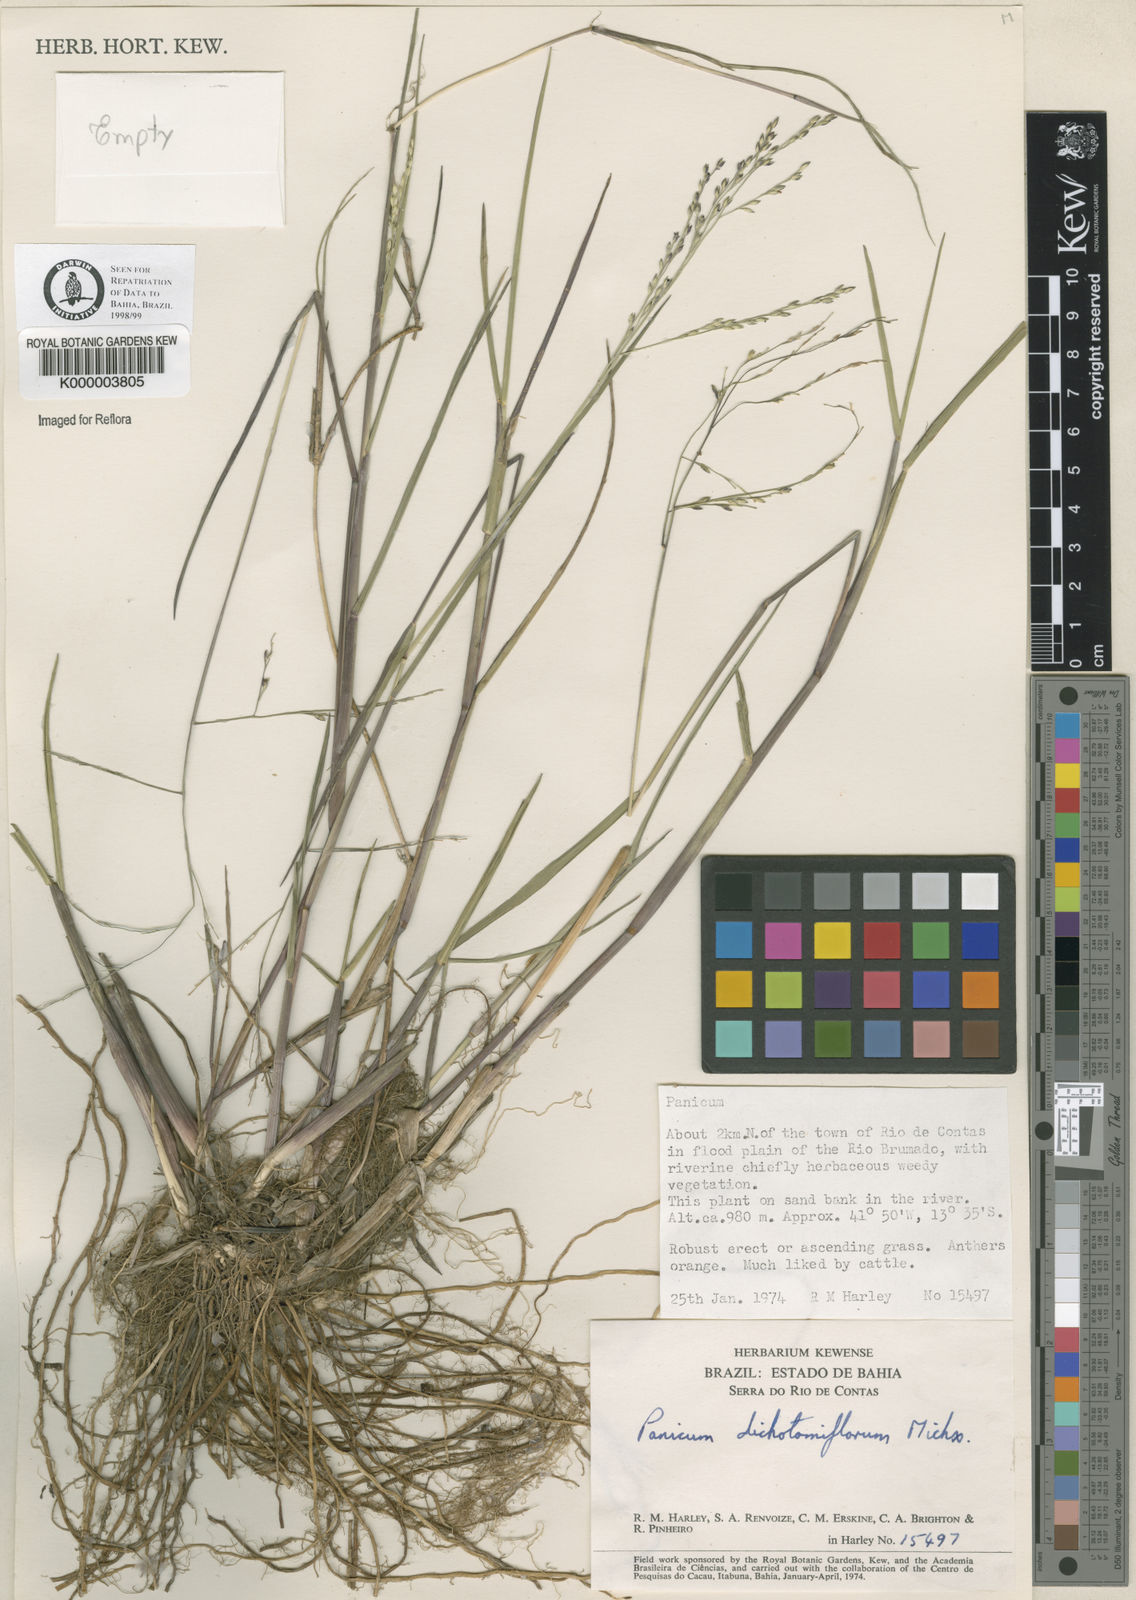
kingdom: Plantae
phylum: Tracheophyta
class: Liliopsida
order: Poales
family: Poaceae
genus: Panicum
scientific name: Panicum dichotomiflorum
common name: Autumn millet
